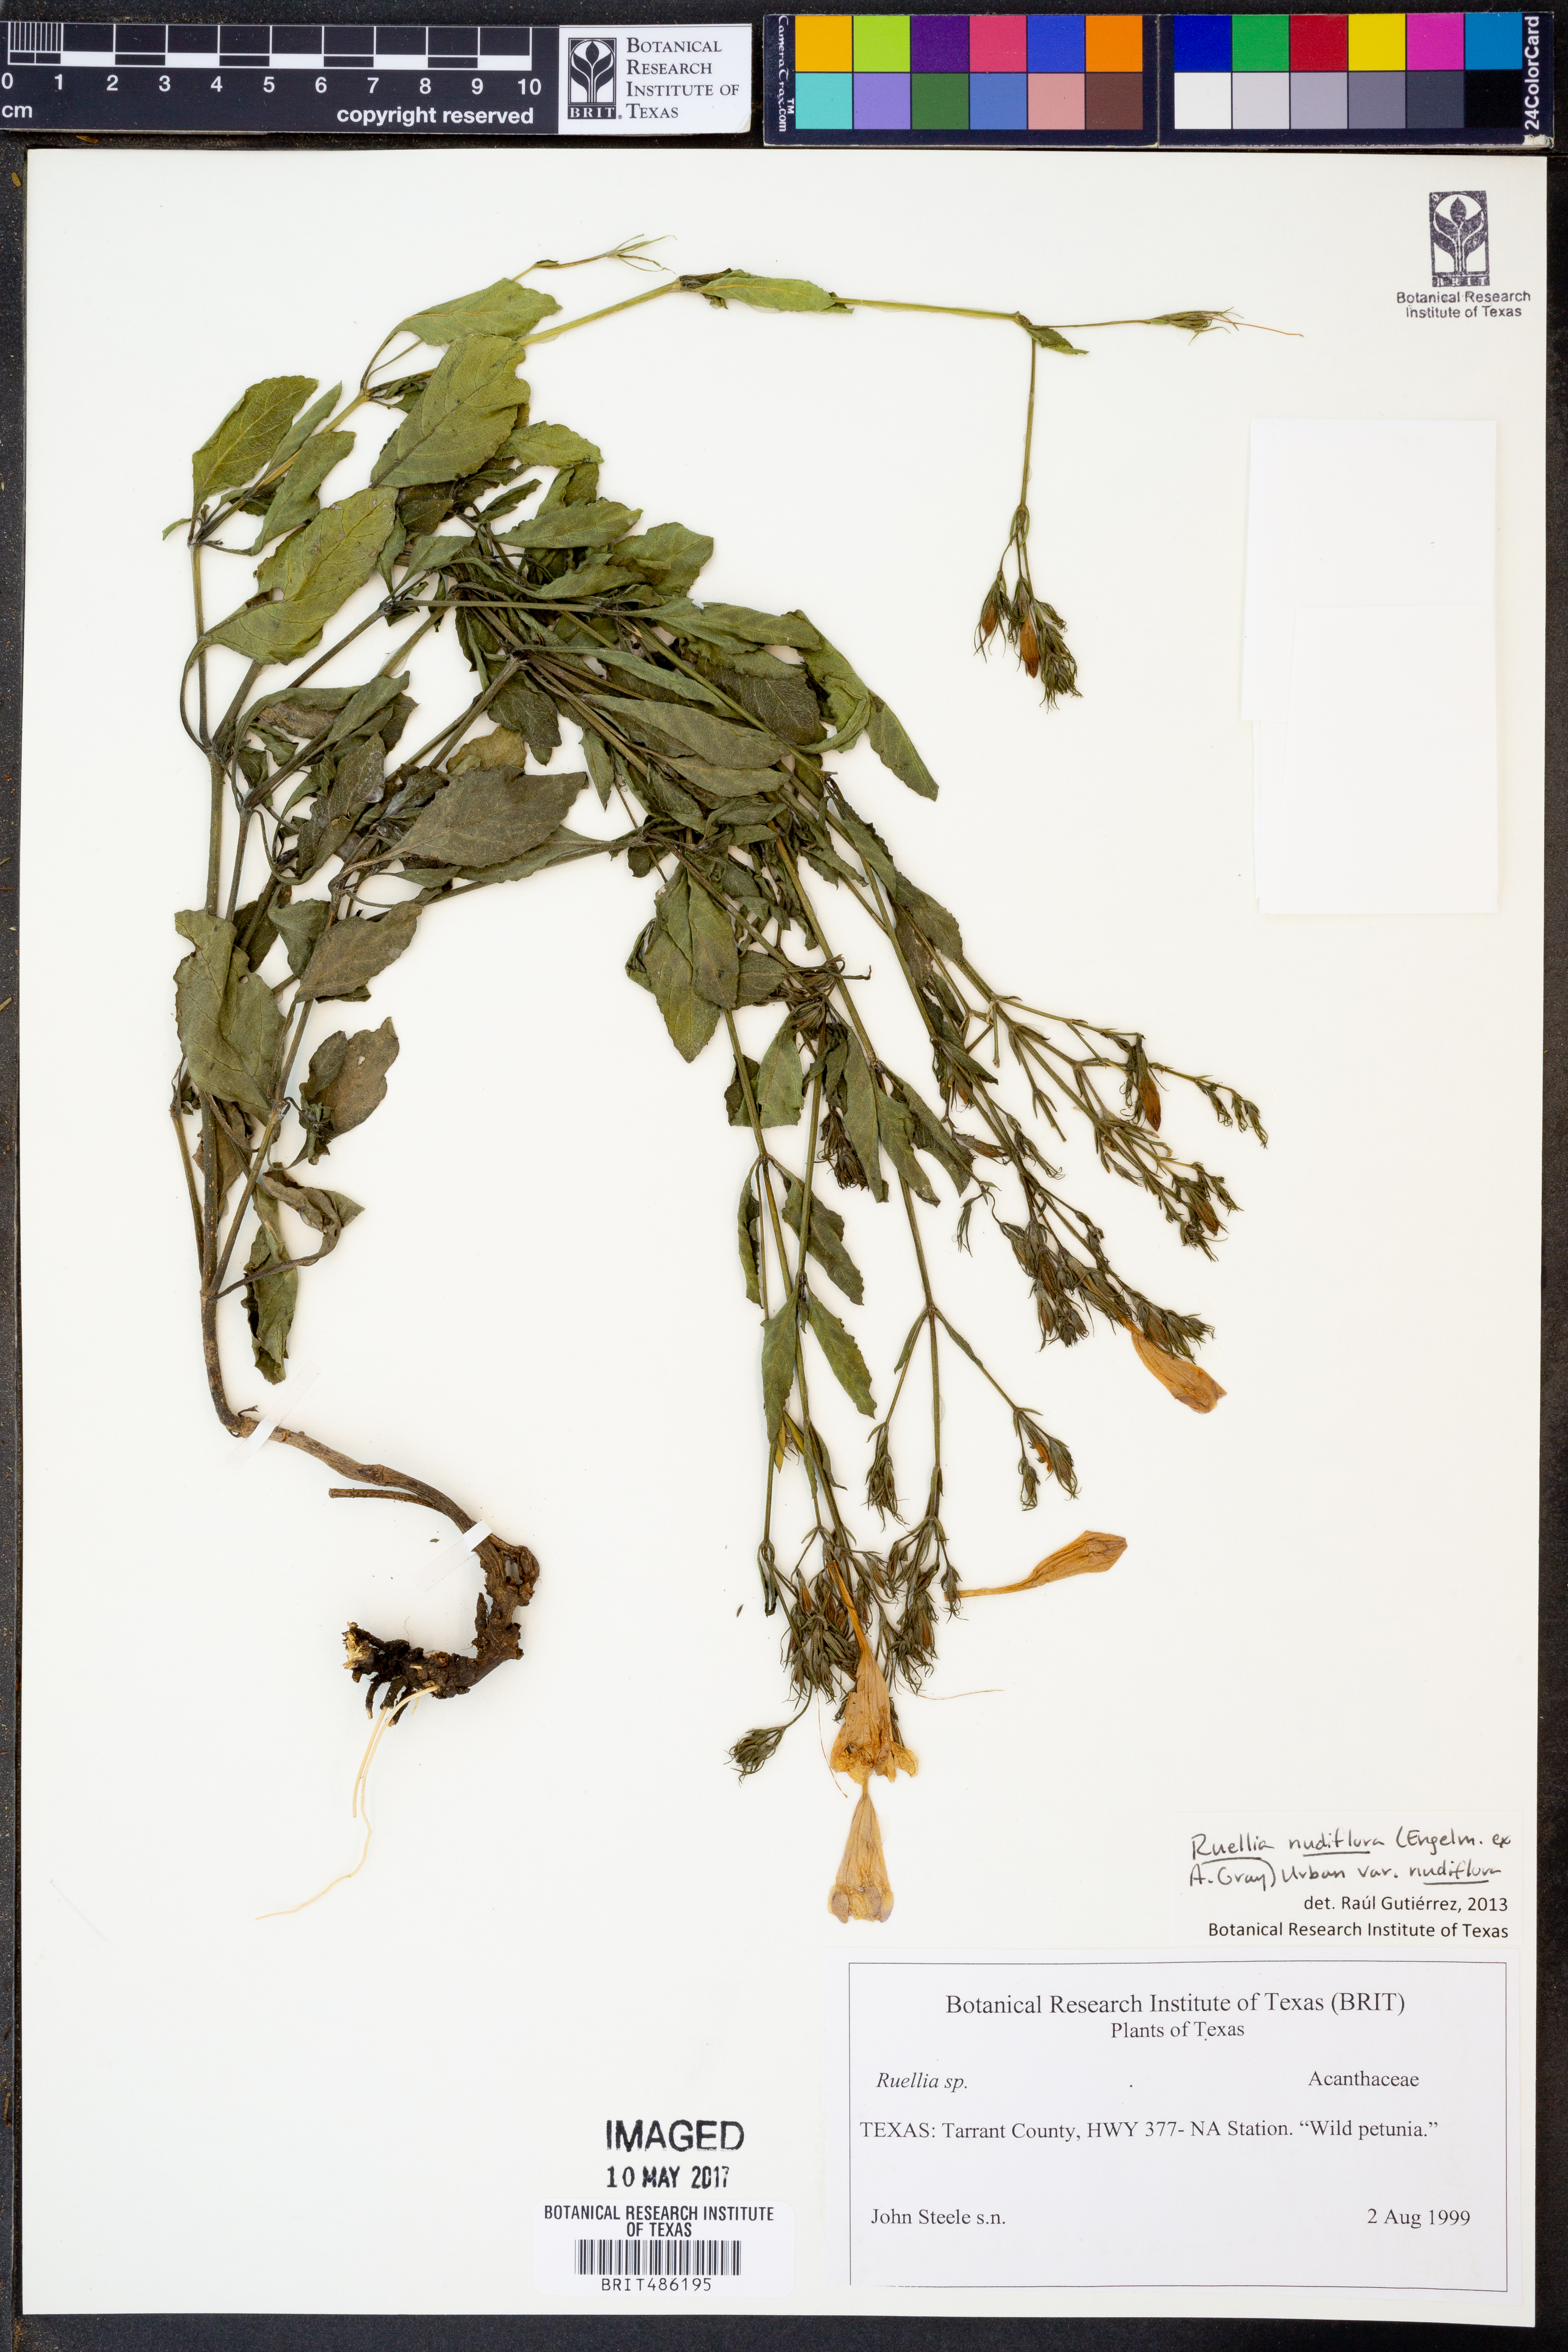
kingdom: Plantae
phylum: Tracheophyta
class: Magnoliopsida
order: Lamiales
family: Acanthaceae
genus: Ruellia
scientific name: Ruellia ciliatiflora
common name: Hairyflower wild petunia
